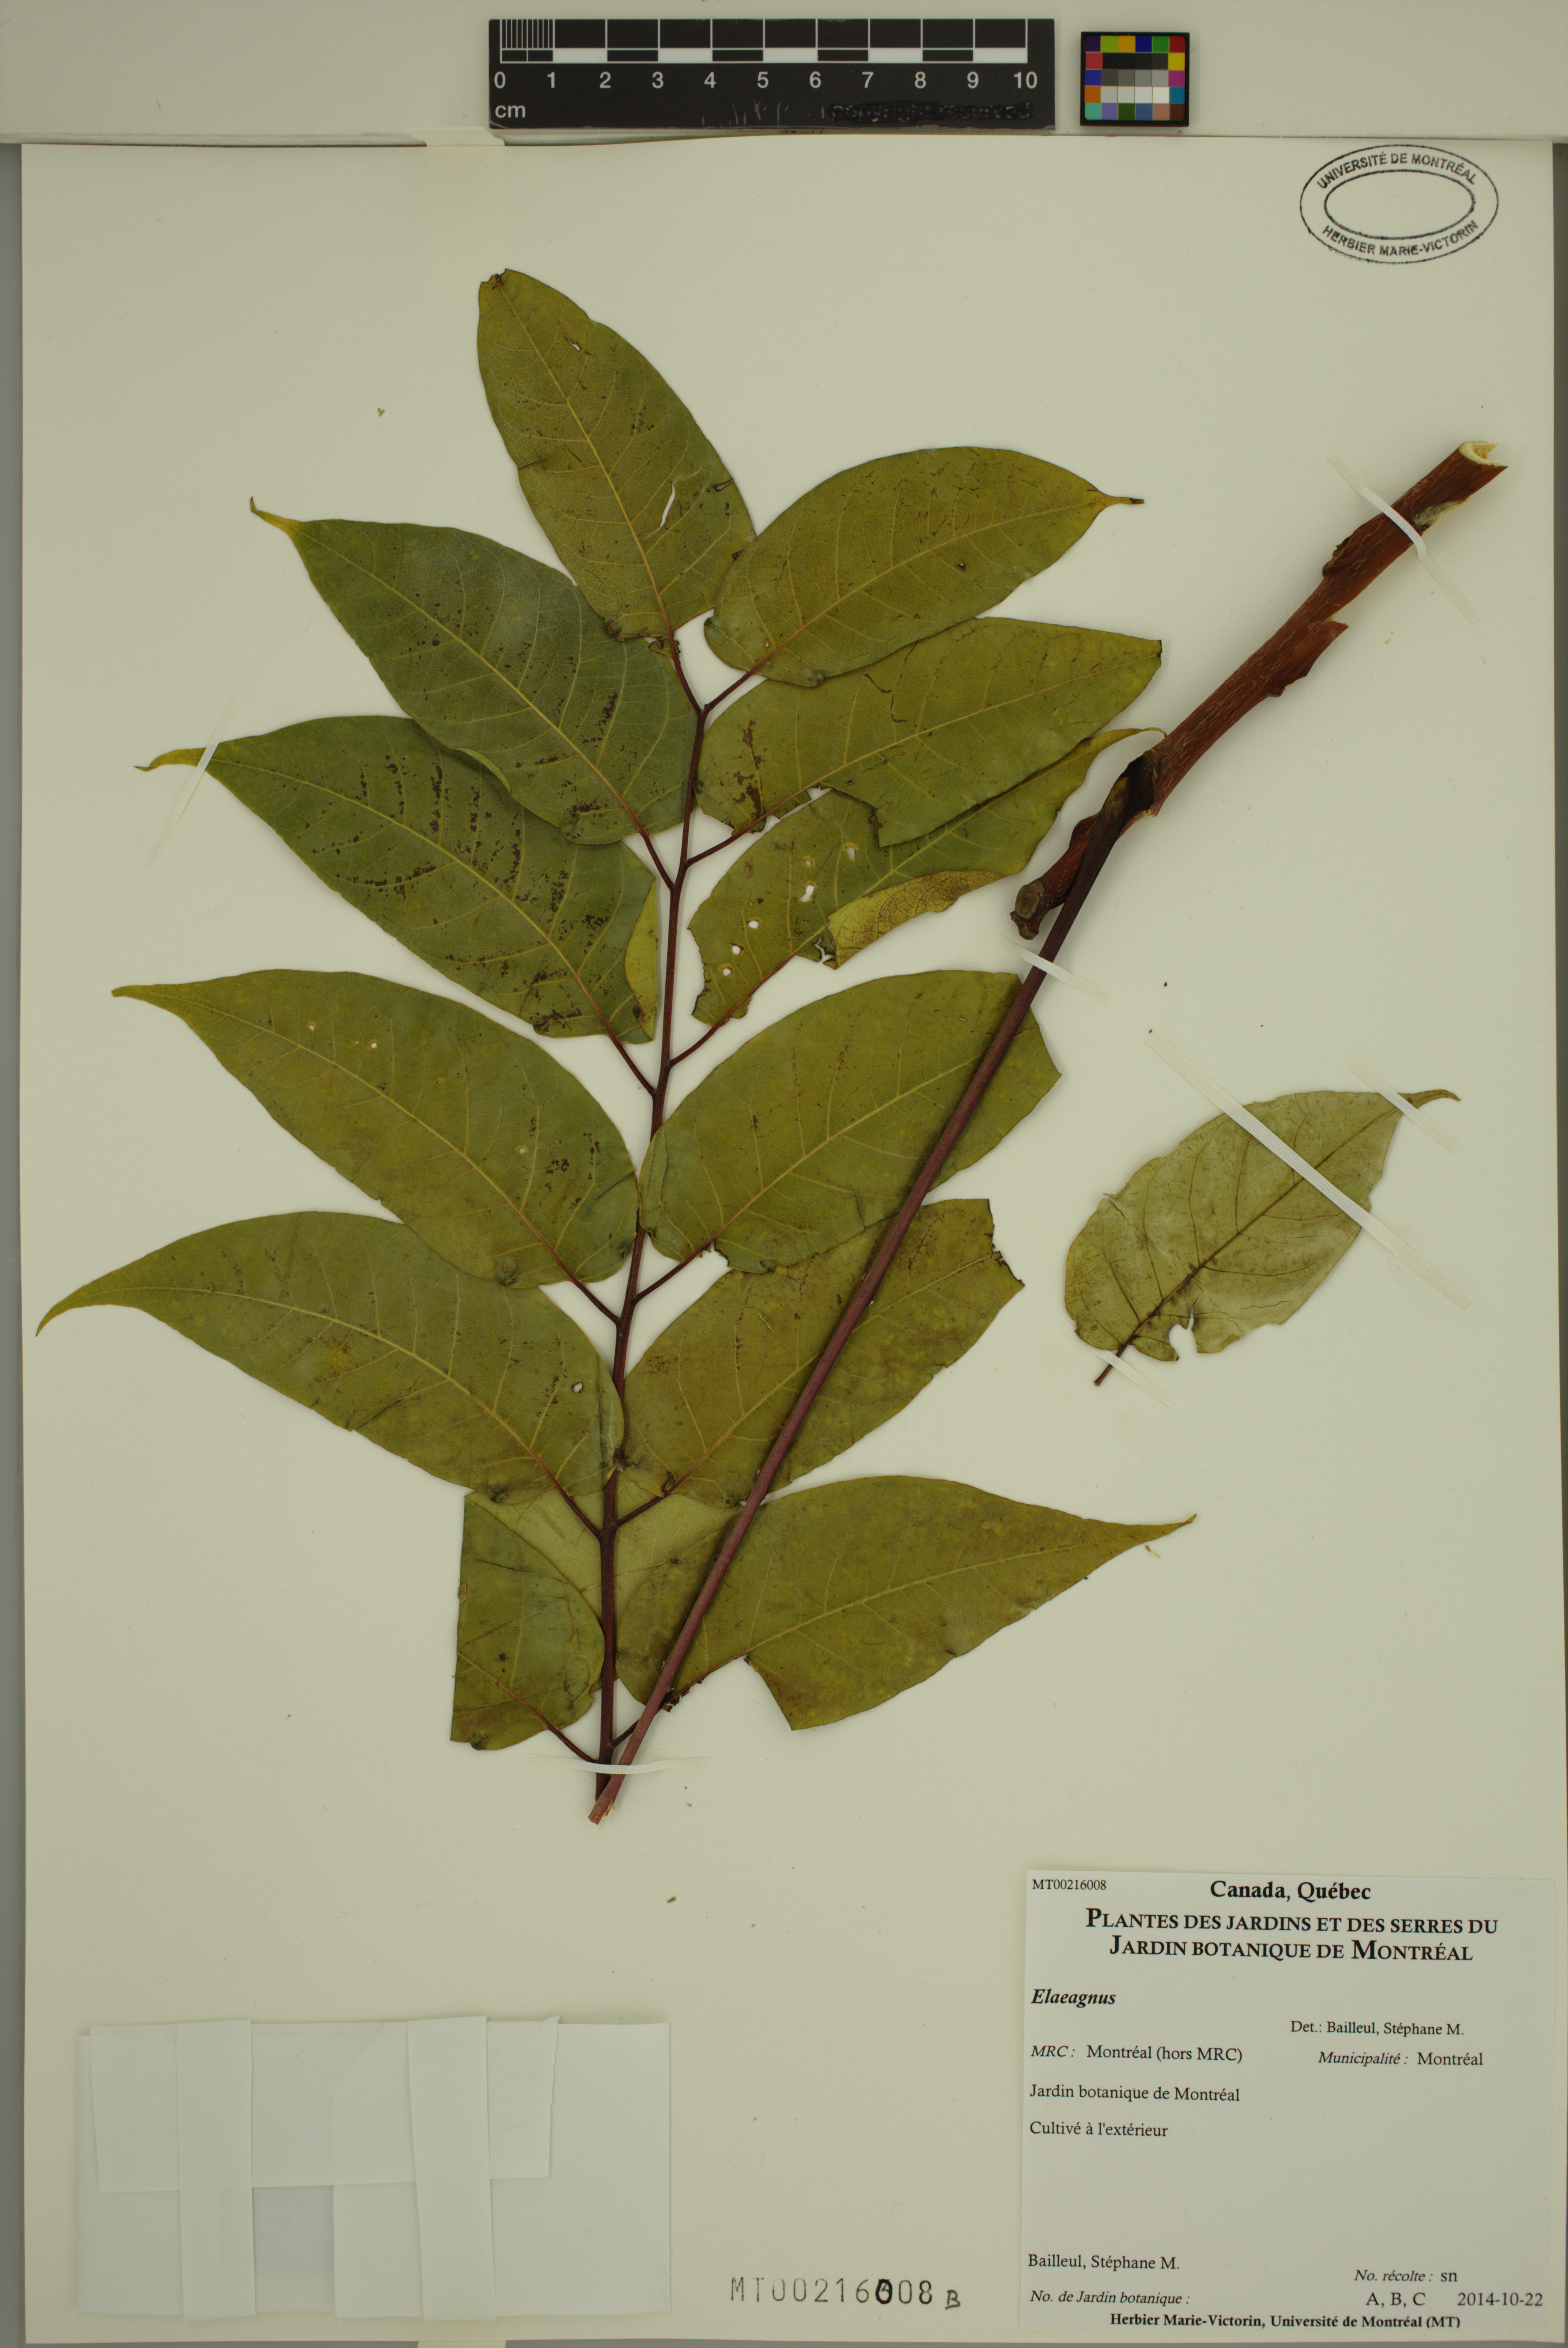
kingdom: Plantae
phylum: Tracheophyta
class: Magnoliopsida
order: Rosales
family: Elaeagnaceae
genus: Elaeagnus
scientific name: Elaeagnus
